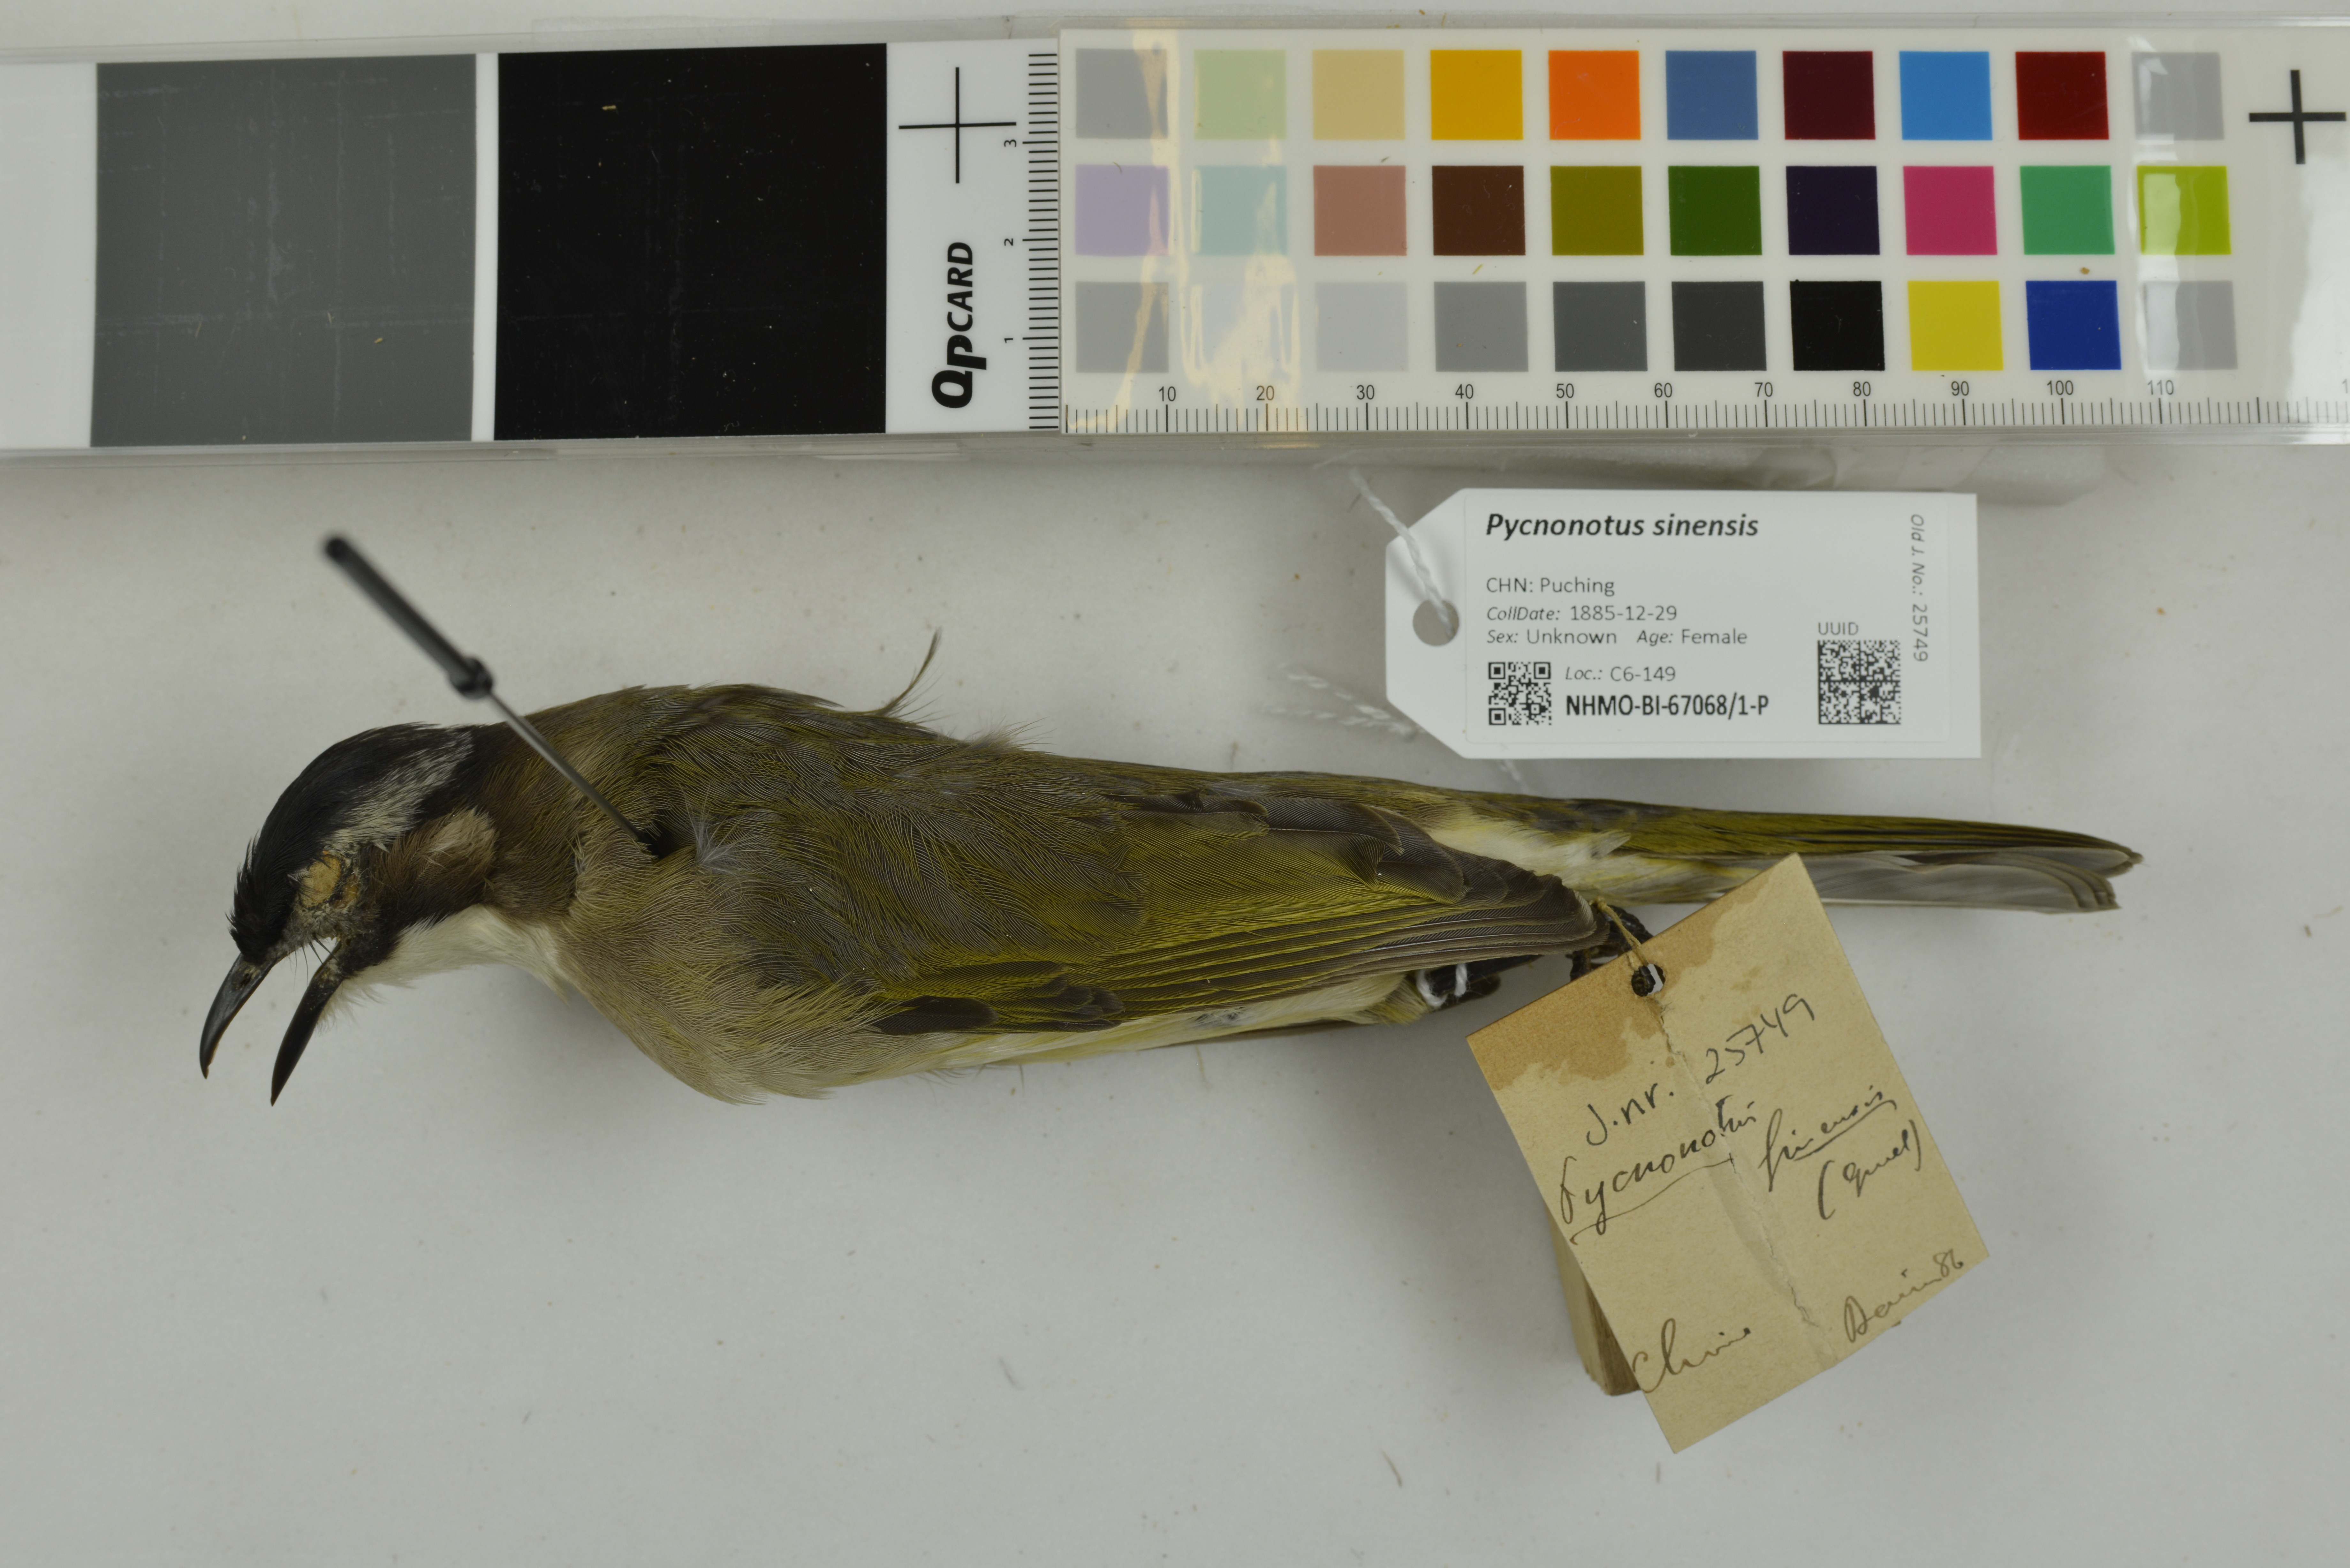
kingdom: Animalia
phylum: Chordata
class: Aves
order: Passeriformes
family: Pycnonotidae
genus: Pycnonotus
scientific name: Pycnonotus sinensis
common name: Light-vented bulbul
